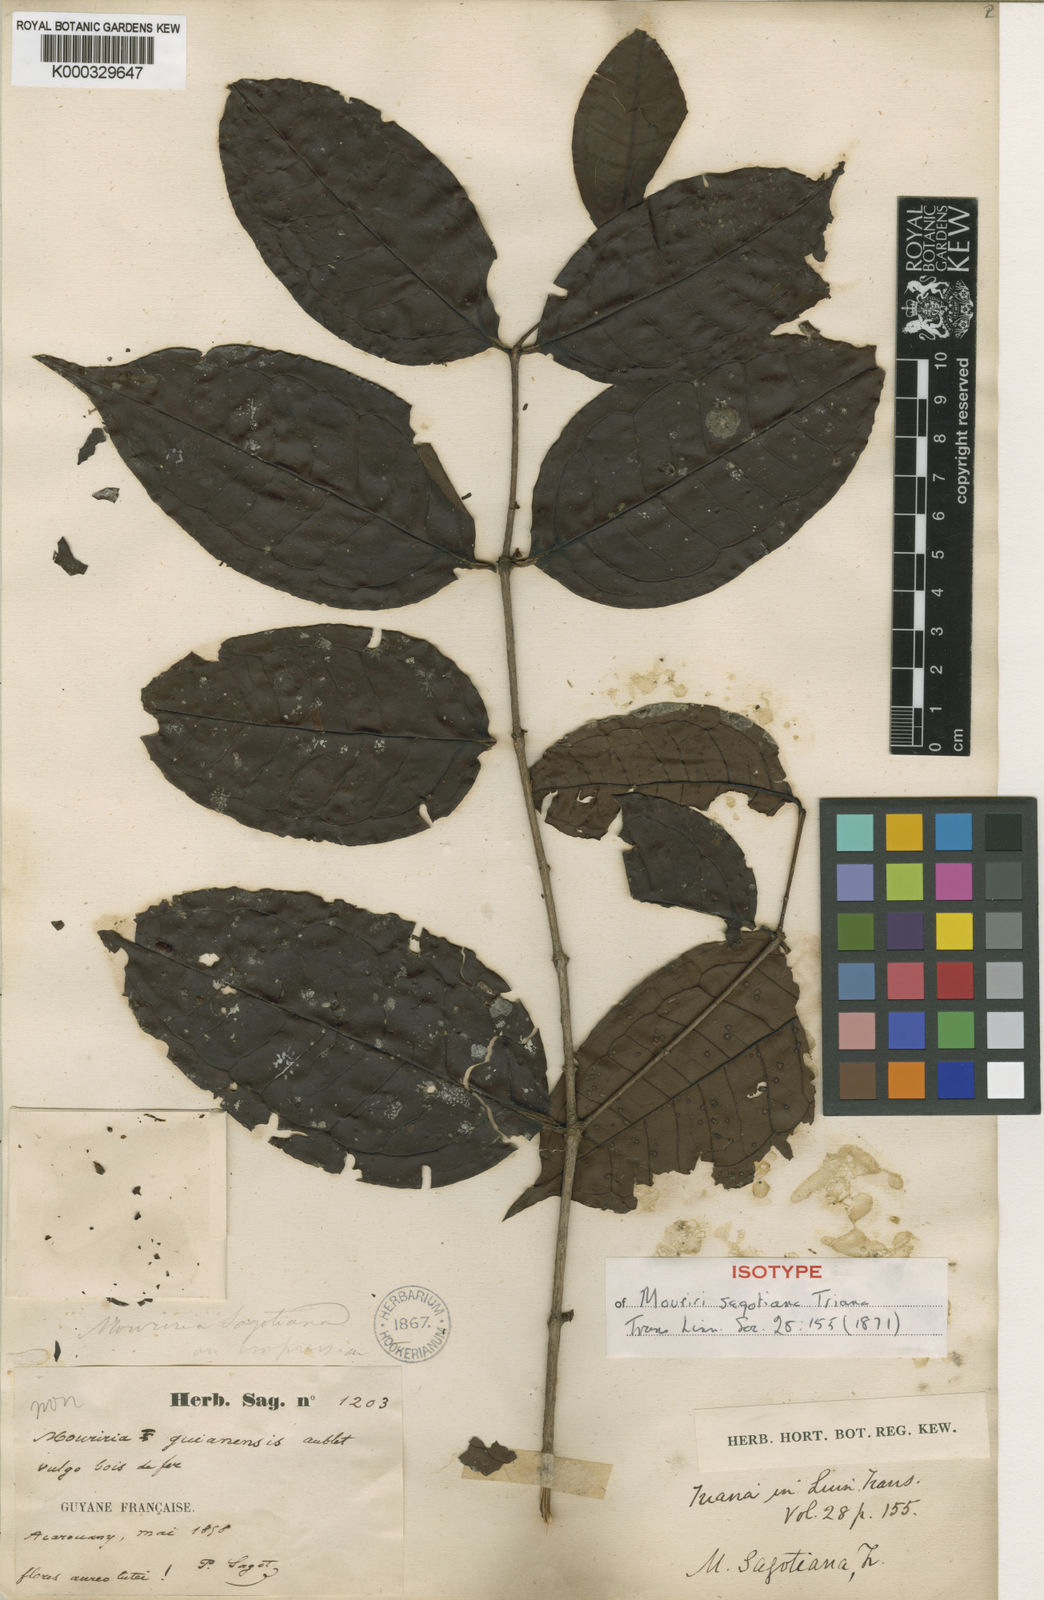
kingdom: Plantae
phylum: Tracheophyta
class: Magnoliopsida
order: Myrtales
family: Melastomataceae
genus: Mouriri
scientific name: Mouriri sagotiana
